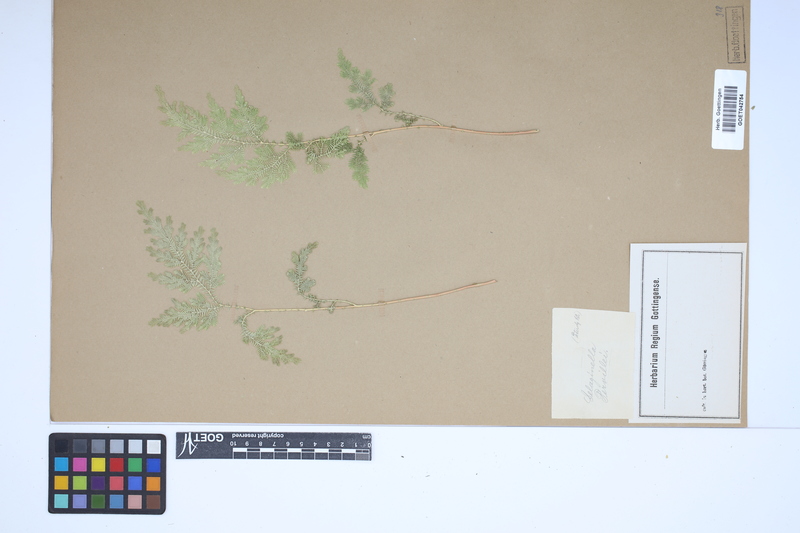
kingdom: Plantae
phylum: Tracheophyta
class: Lycopodiopsida
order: Selaginellales
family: Selaginellaceae
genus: Selaginella
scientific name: Selaginella pervillei
